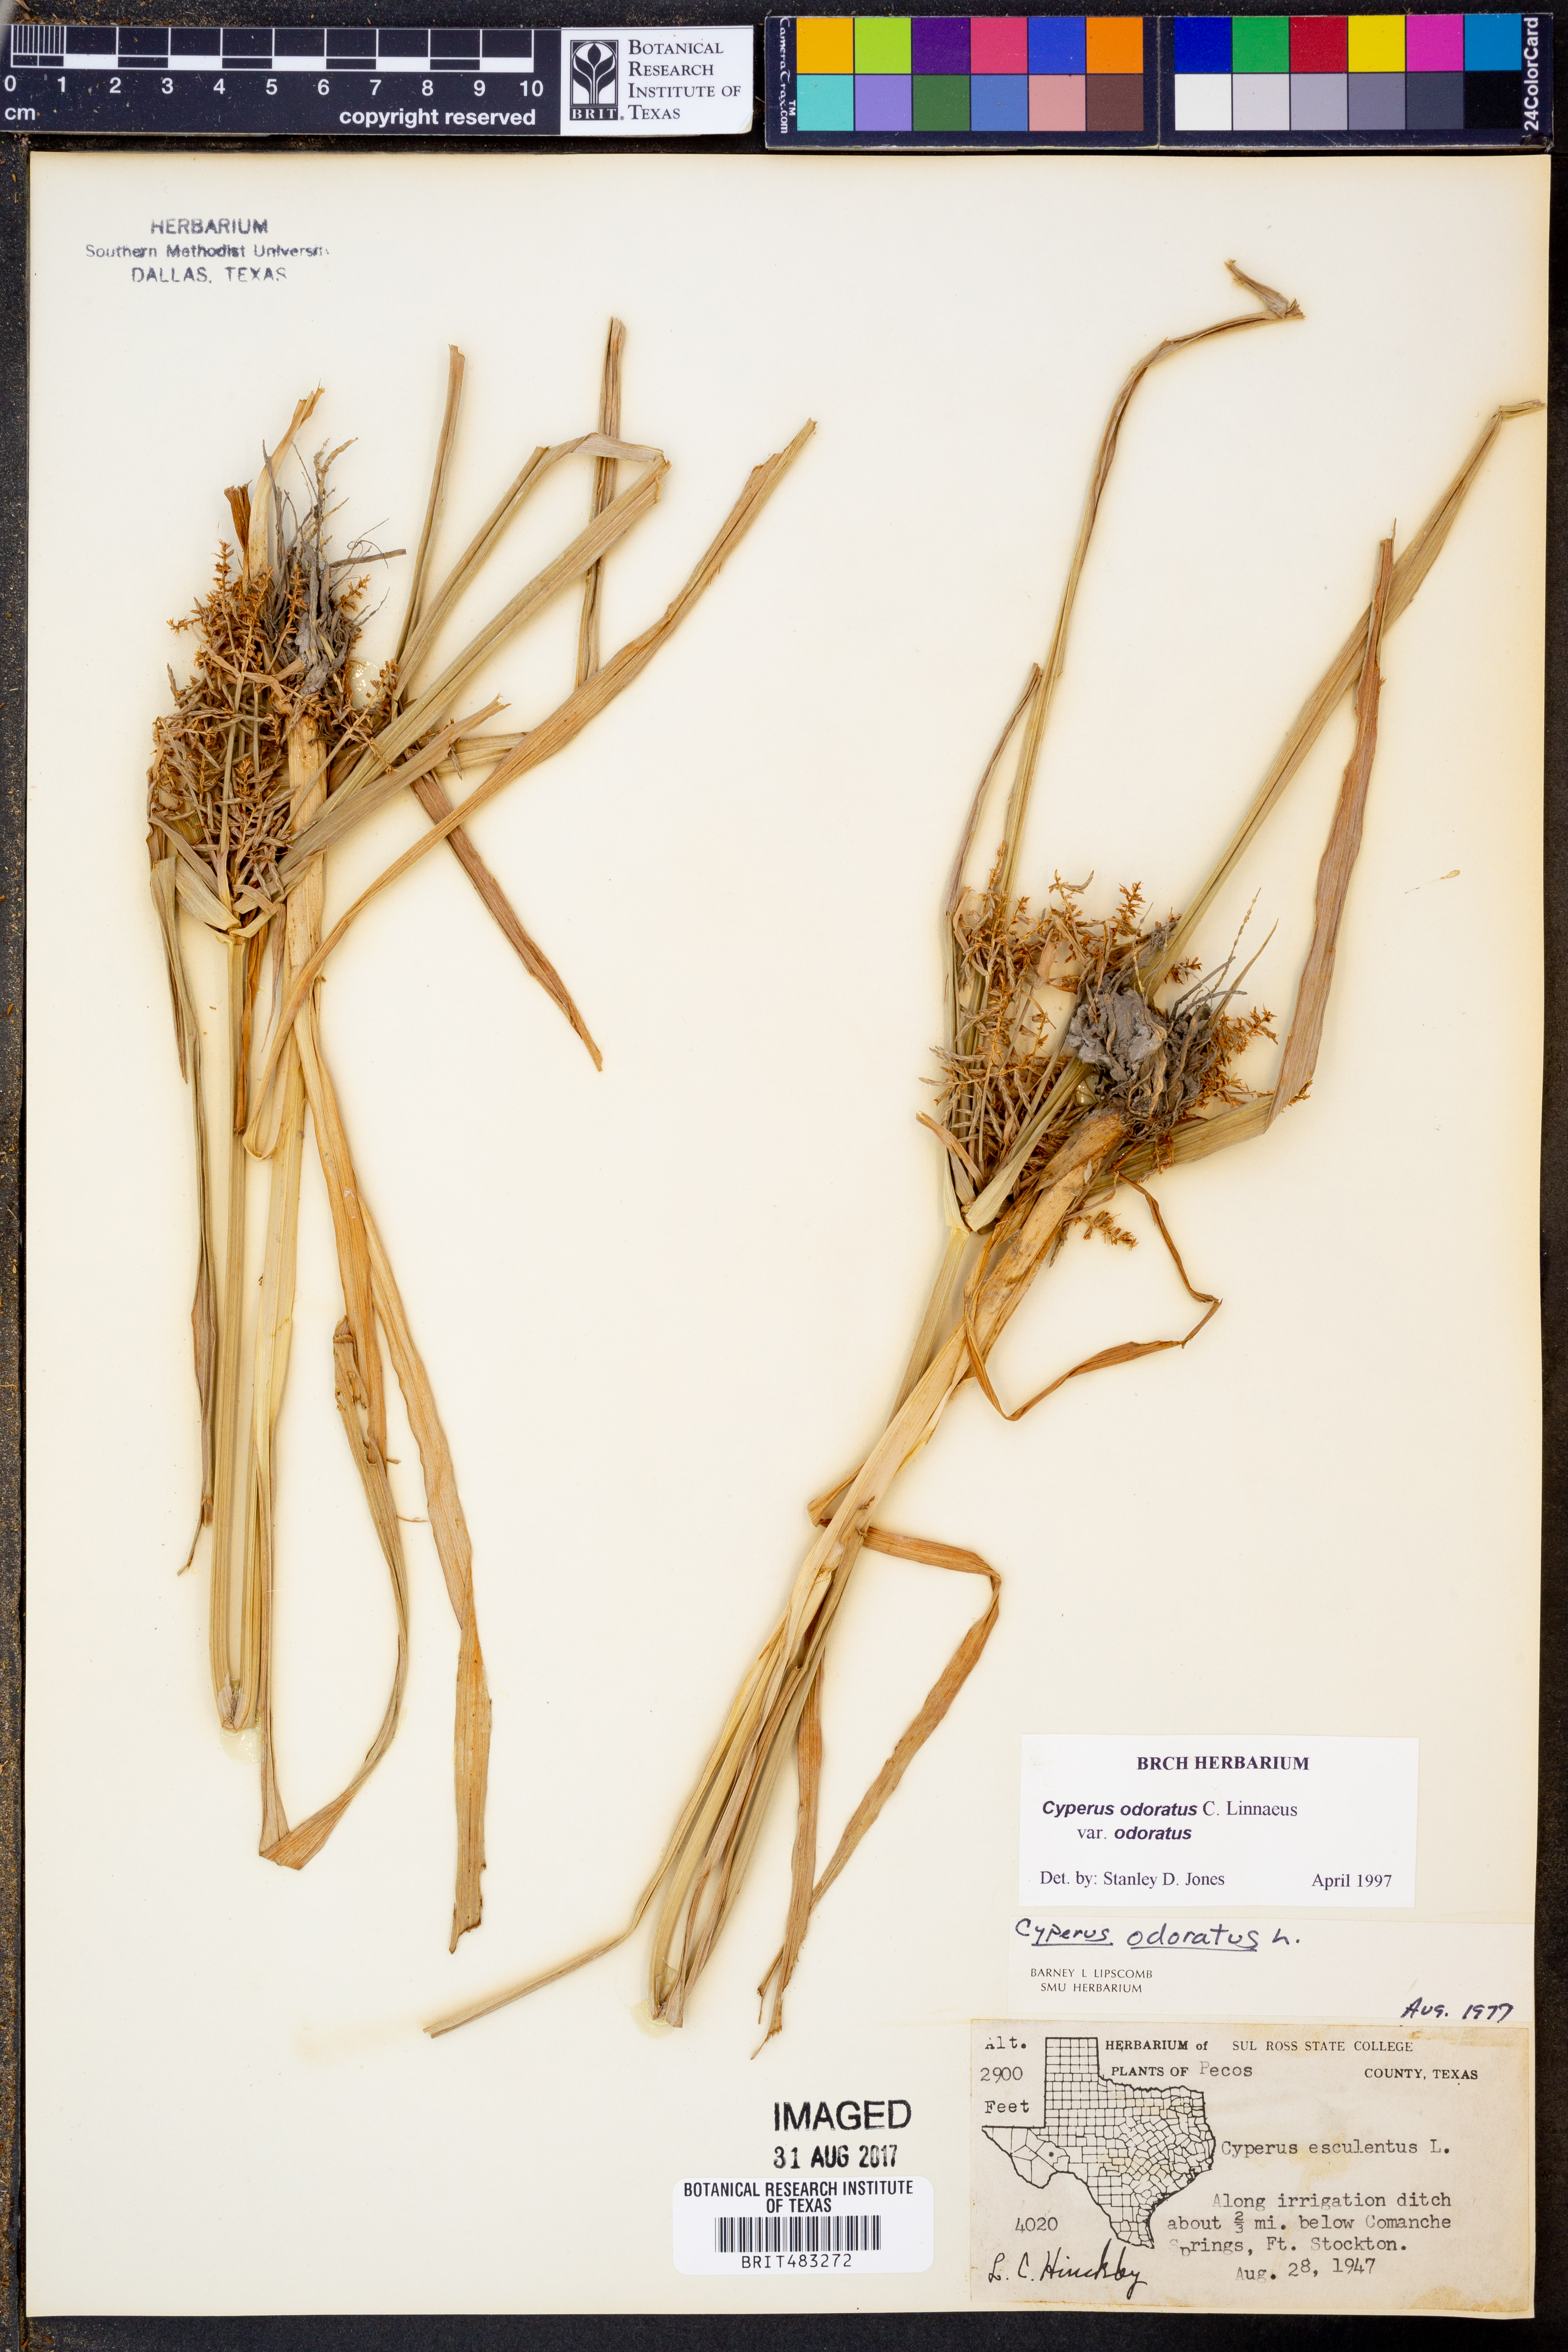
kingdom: Plantae
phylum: Tracheophyta
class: Liliopsida
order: Poales
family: Cyperaceae
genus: Cyperus
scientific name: Cyperus odoratus
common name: Fragrant flatsedge
